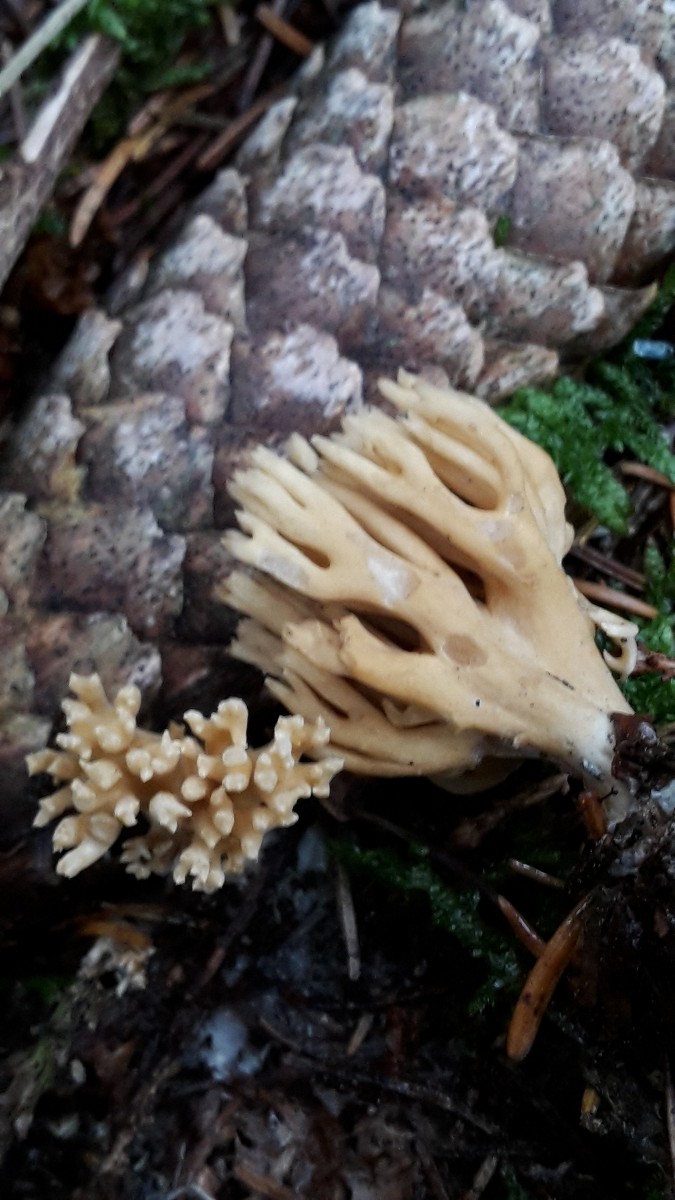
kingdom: Fungi
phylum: Basidiomycota
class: Agaricomycetes
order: Gomphales
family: Gomphaceae
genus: Phaeoclavulina
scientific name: Phaeoclavulina eumorpha
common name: gran-koralsvamp
